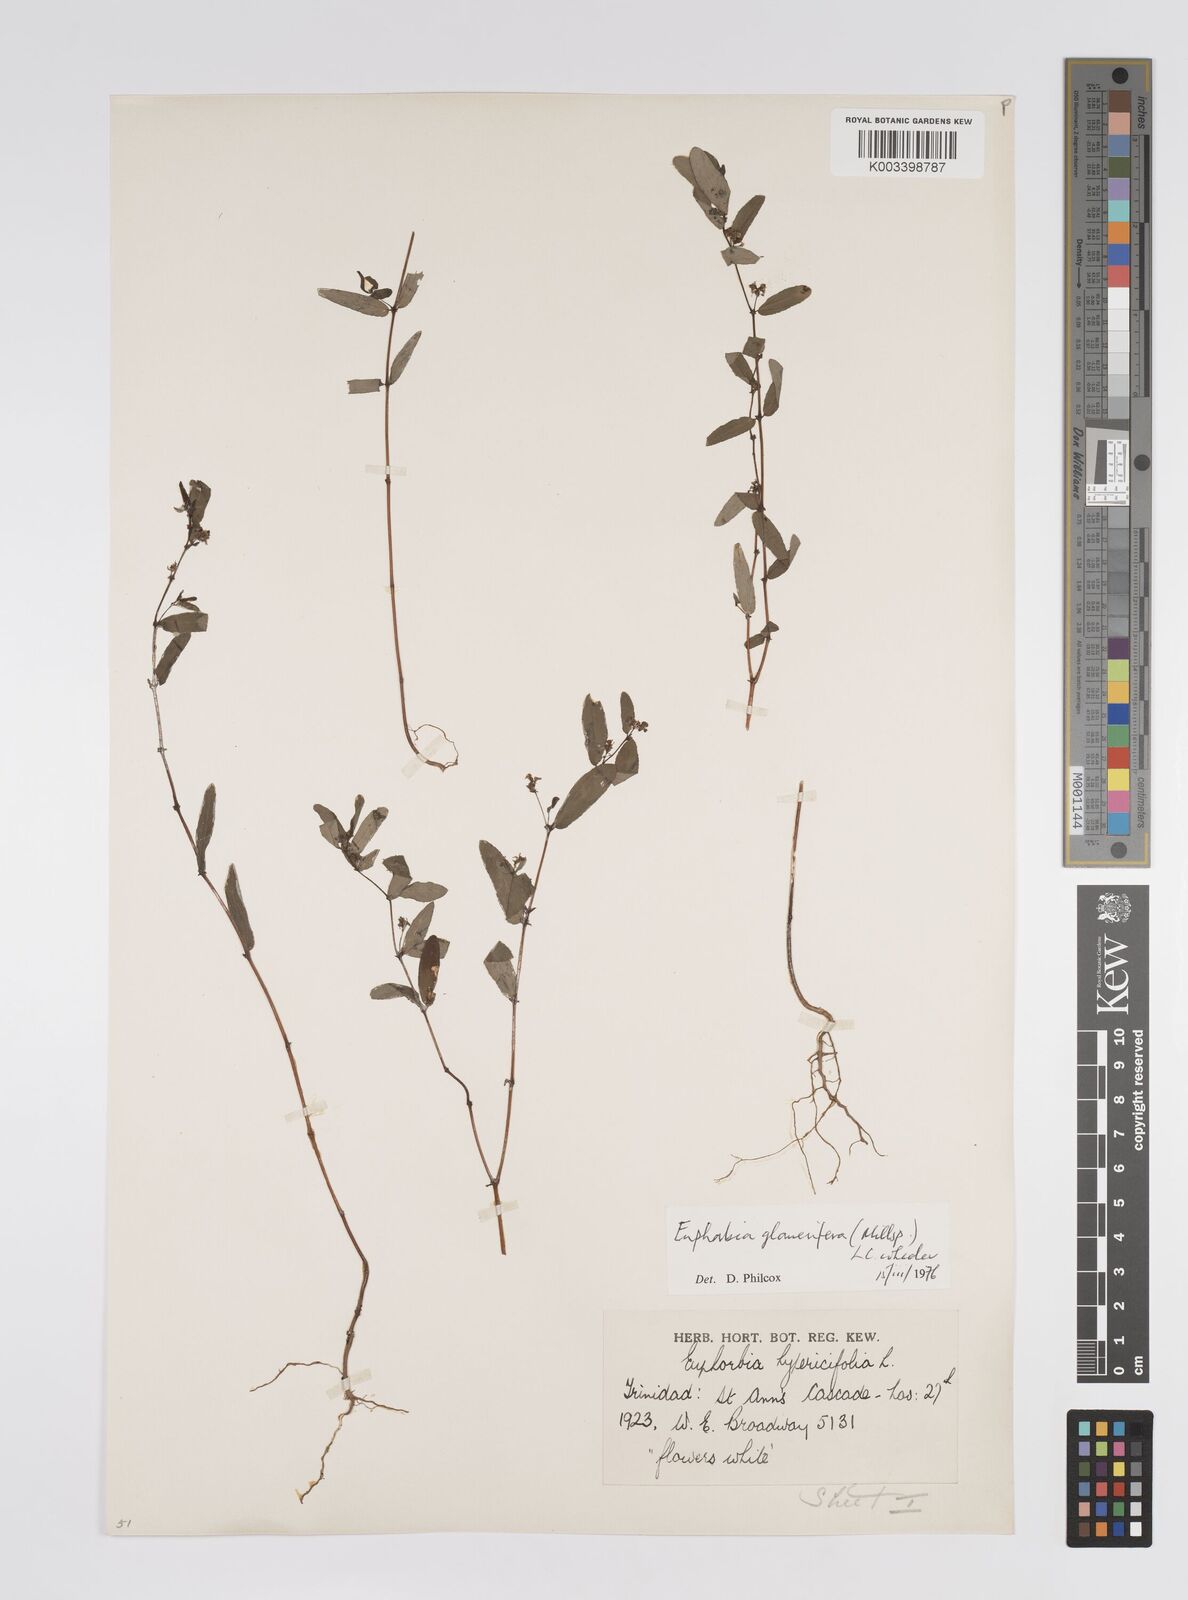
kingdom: Plantae
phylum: Tracheophyta
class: Magnoliopsida
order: Malpighiales
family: Euphorbiaceae
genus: Euphorbia
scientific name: Euphorbia hypericifolia
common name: Graceful sandmat
